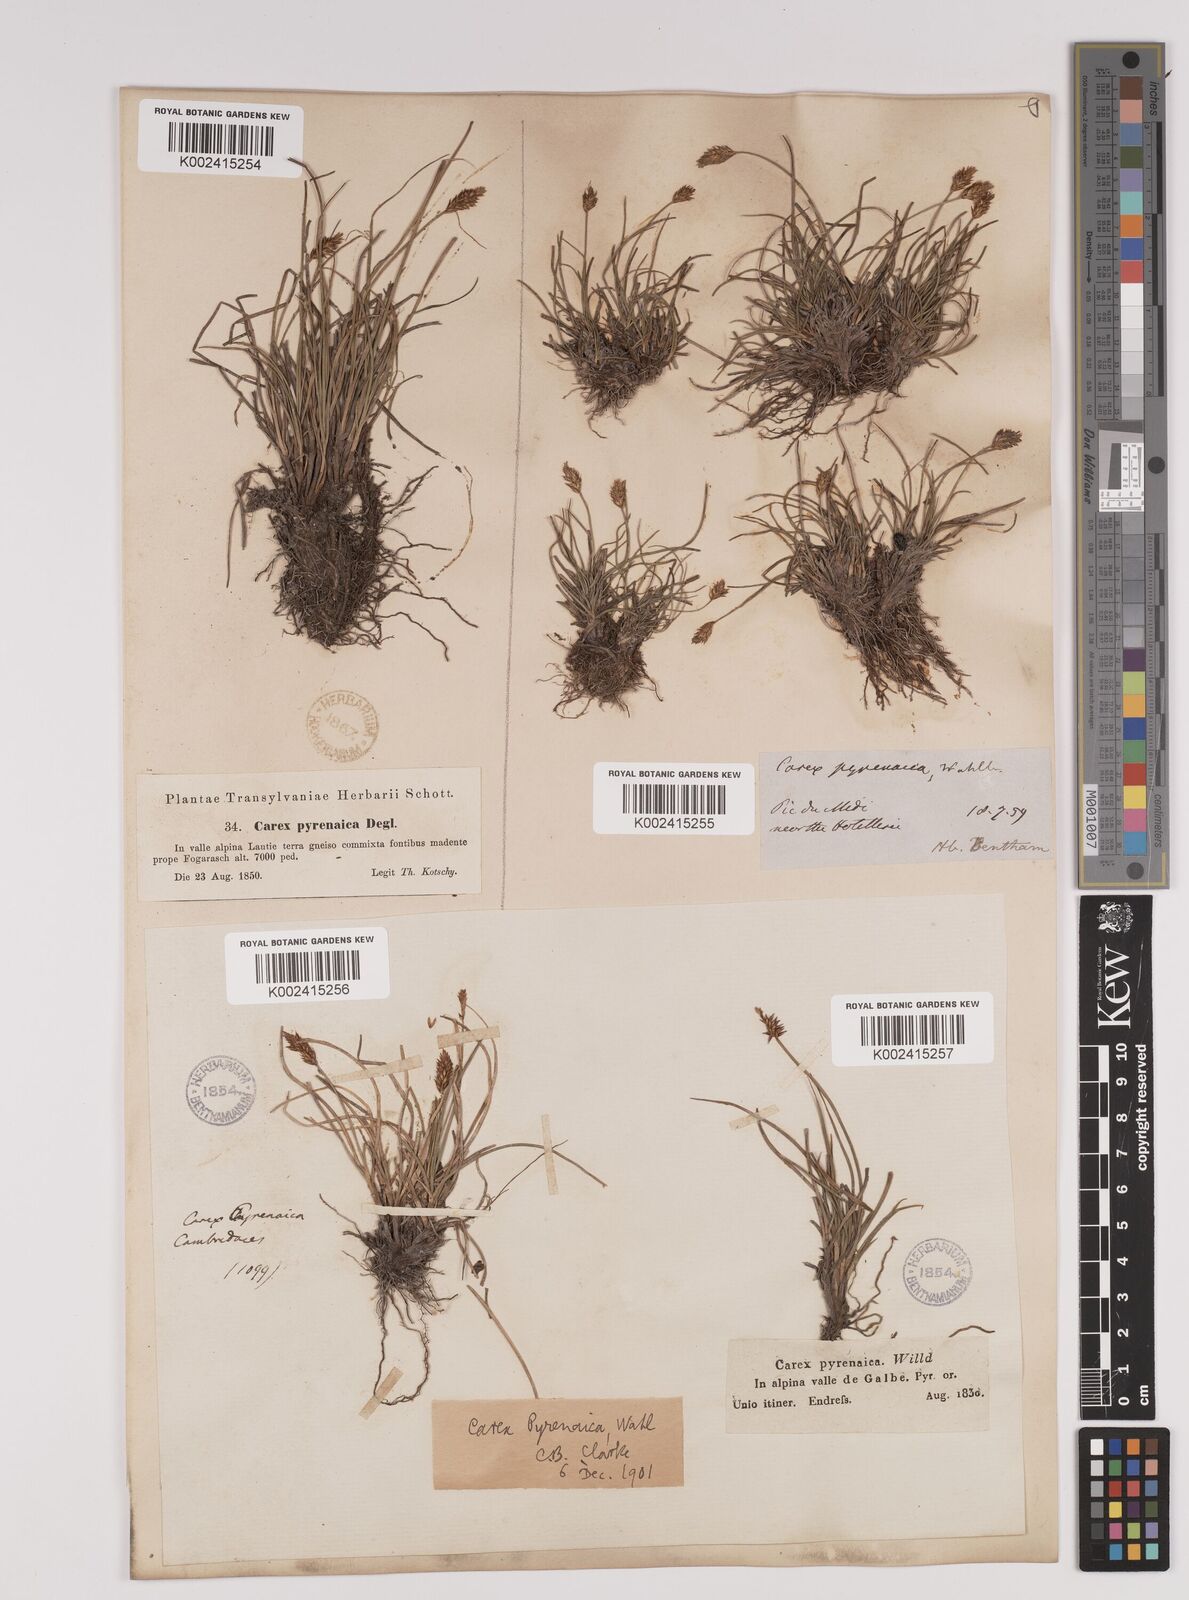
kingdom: Plantae
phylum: Tracheophyta
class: Liliopsida
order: Poales
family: Cyperaceae
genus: Carex
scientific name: Carex acicularis
